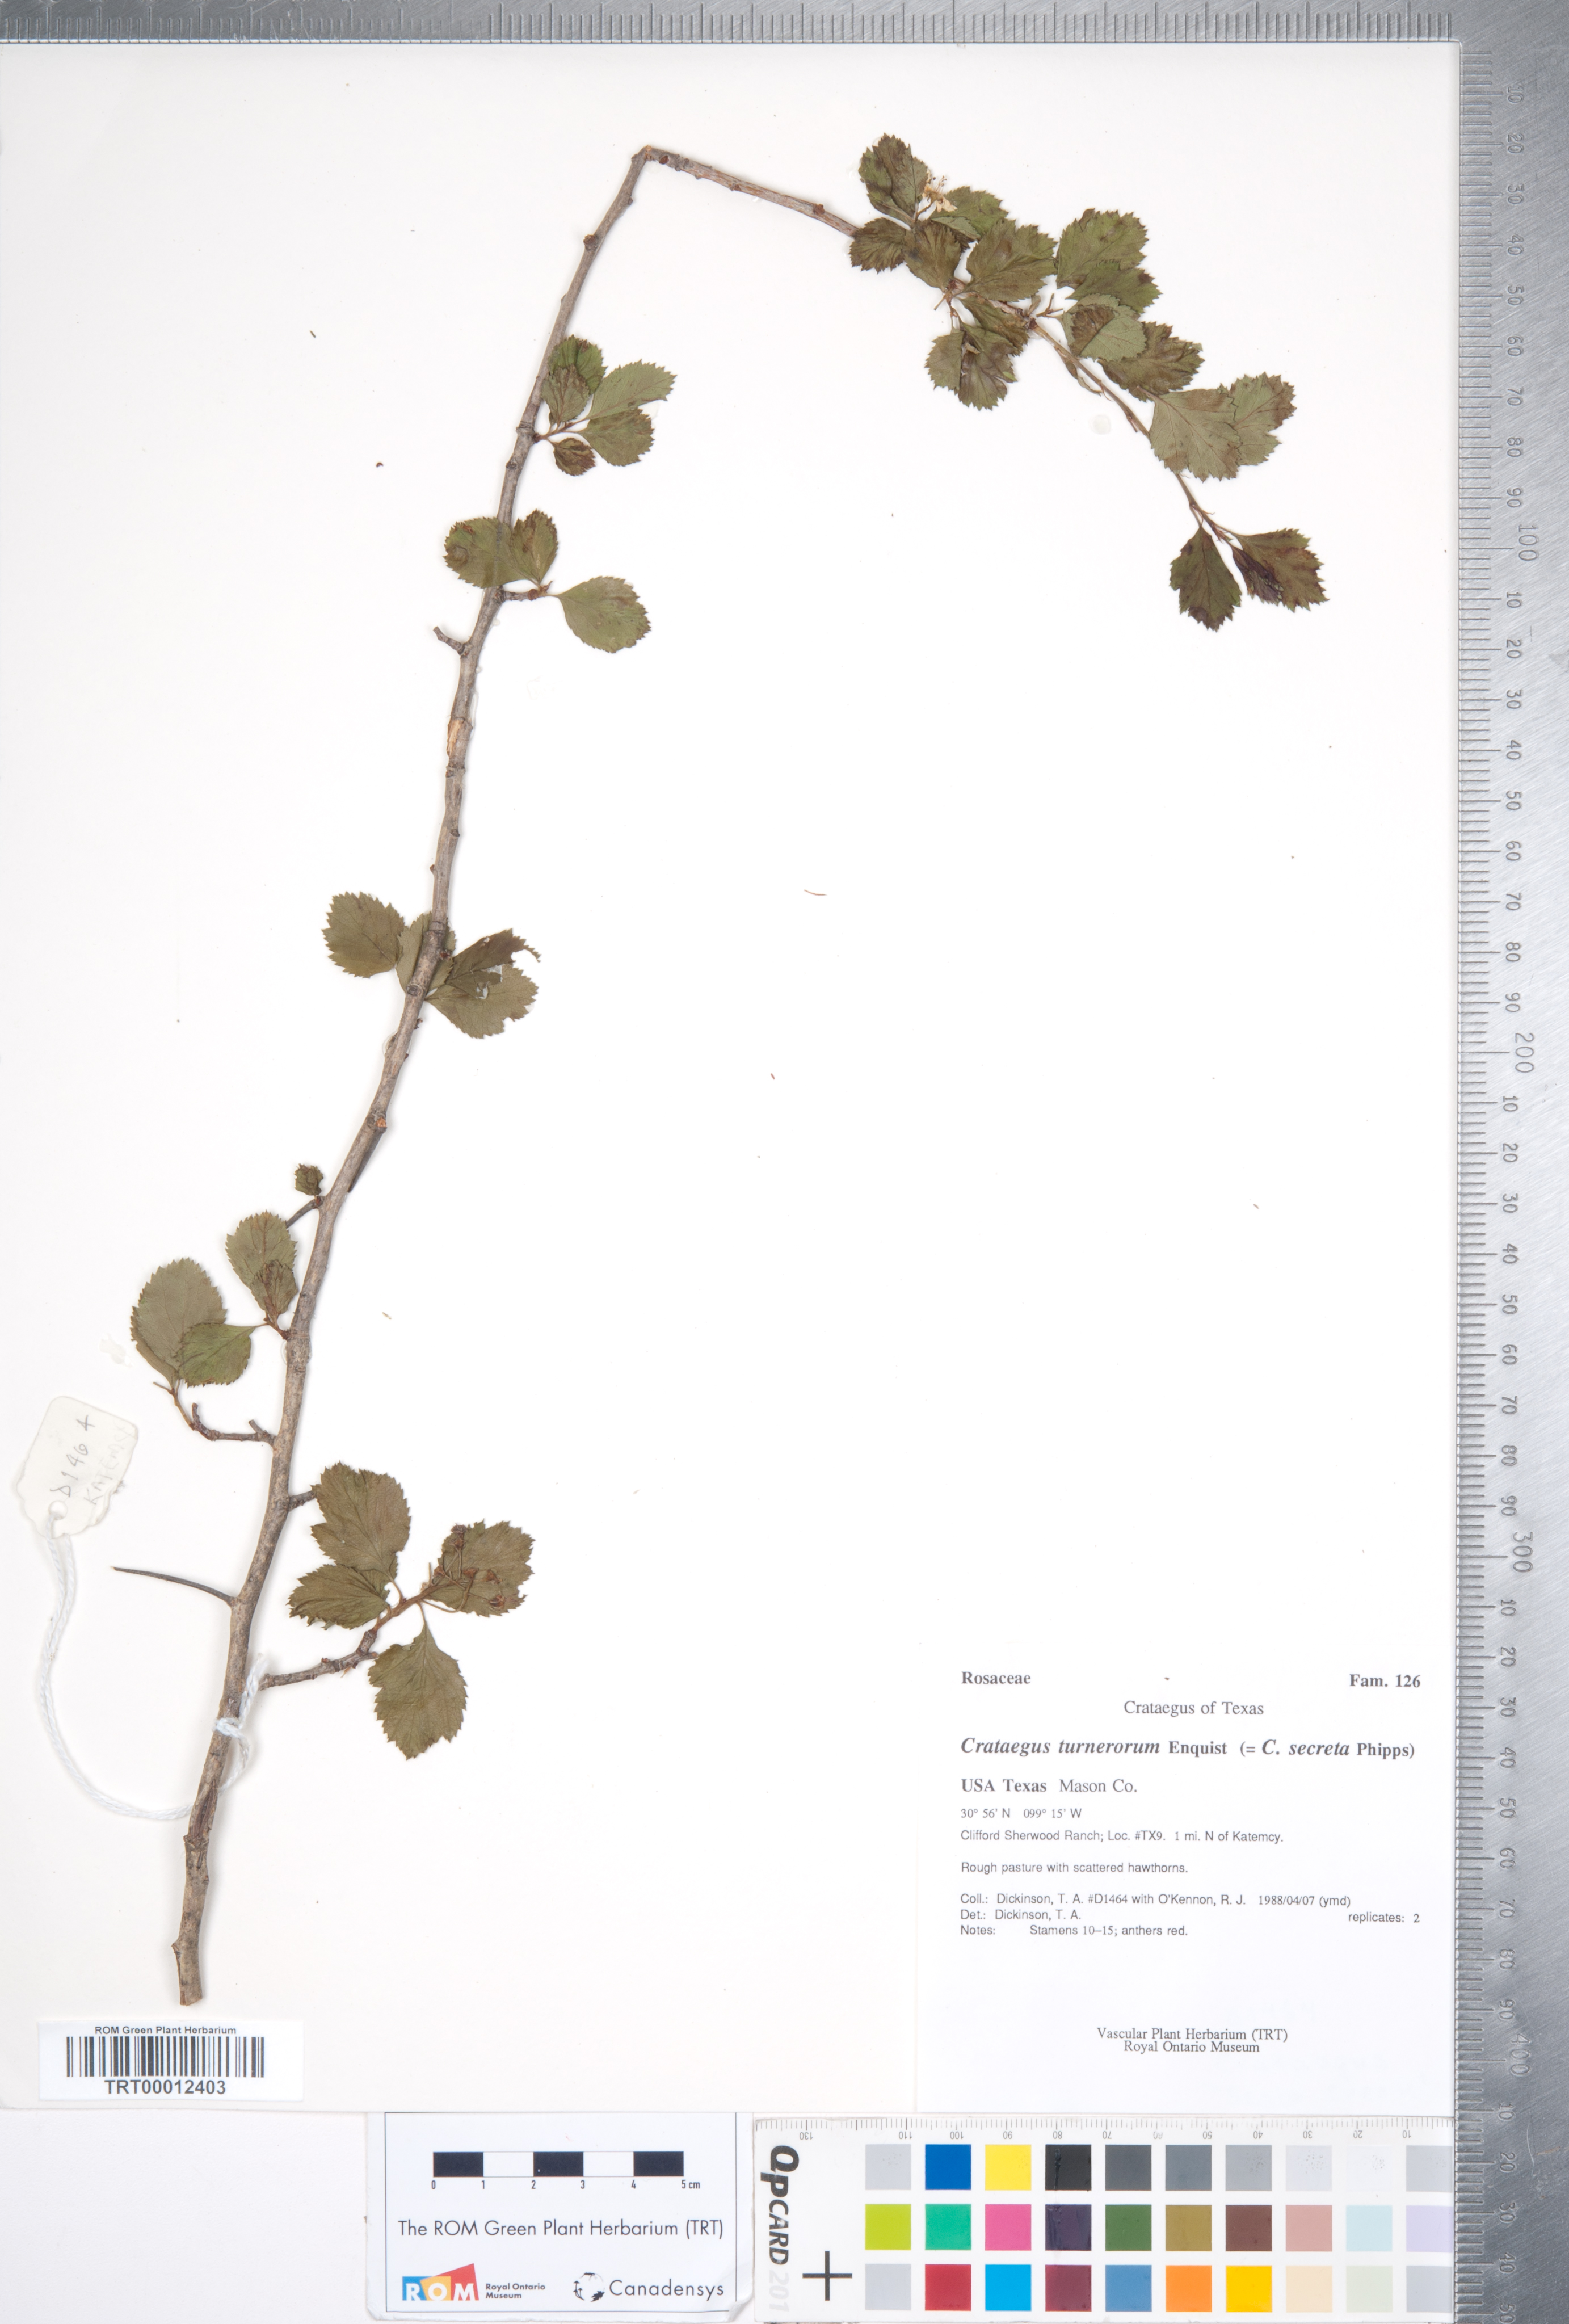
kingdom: Plantae
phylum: Tracheophyta
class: Magnoliopsida
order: Rosales
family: Rosaceae
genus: Crataegus
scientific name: Crataegus turnerorum
